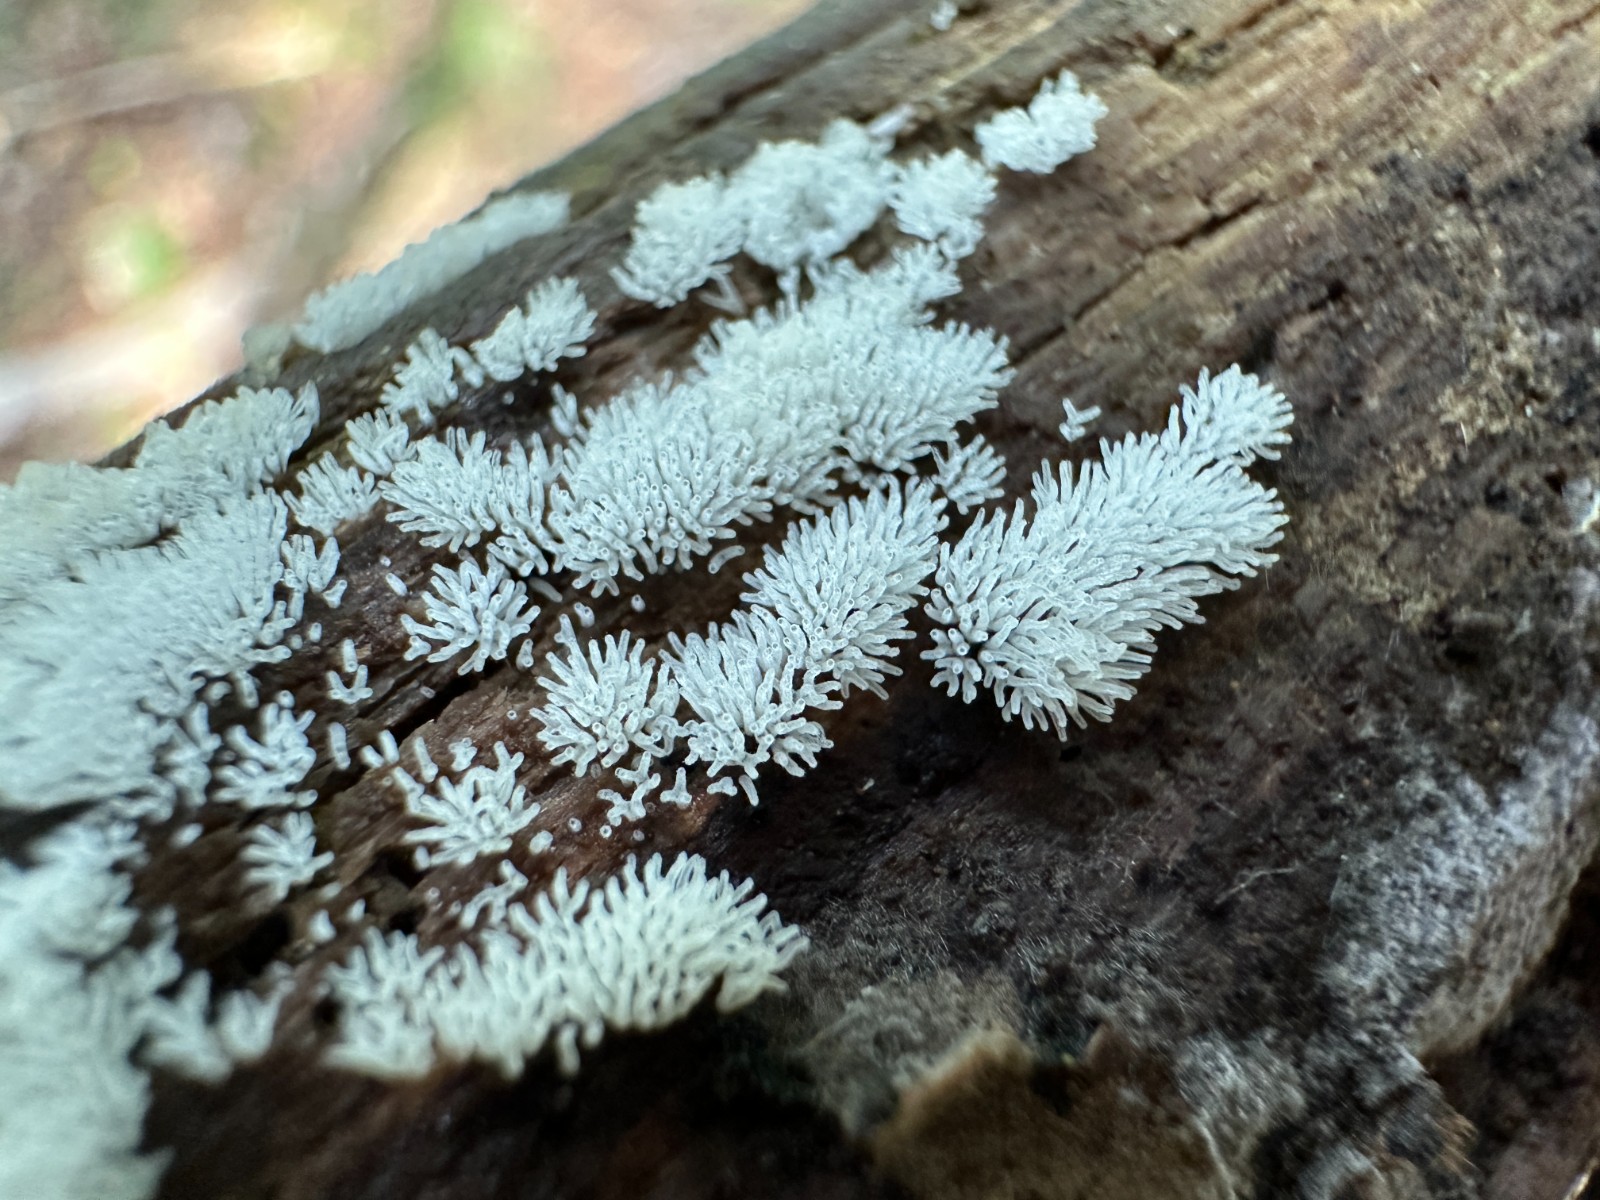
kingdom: Protozoa
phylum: Mycetozoa
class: Protosteliomycetes
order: Ceratiomyxales
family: Ceratiomyxaceae
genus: Ceratiomyxa
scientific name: Ceratiomyxa fruticulosa
